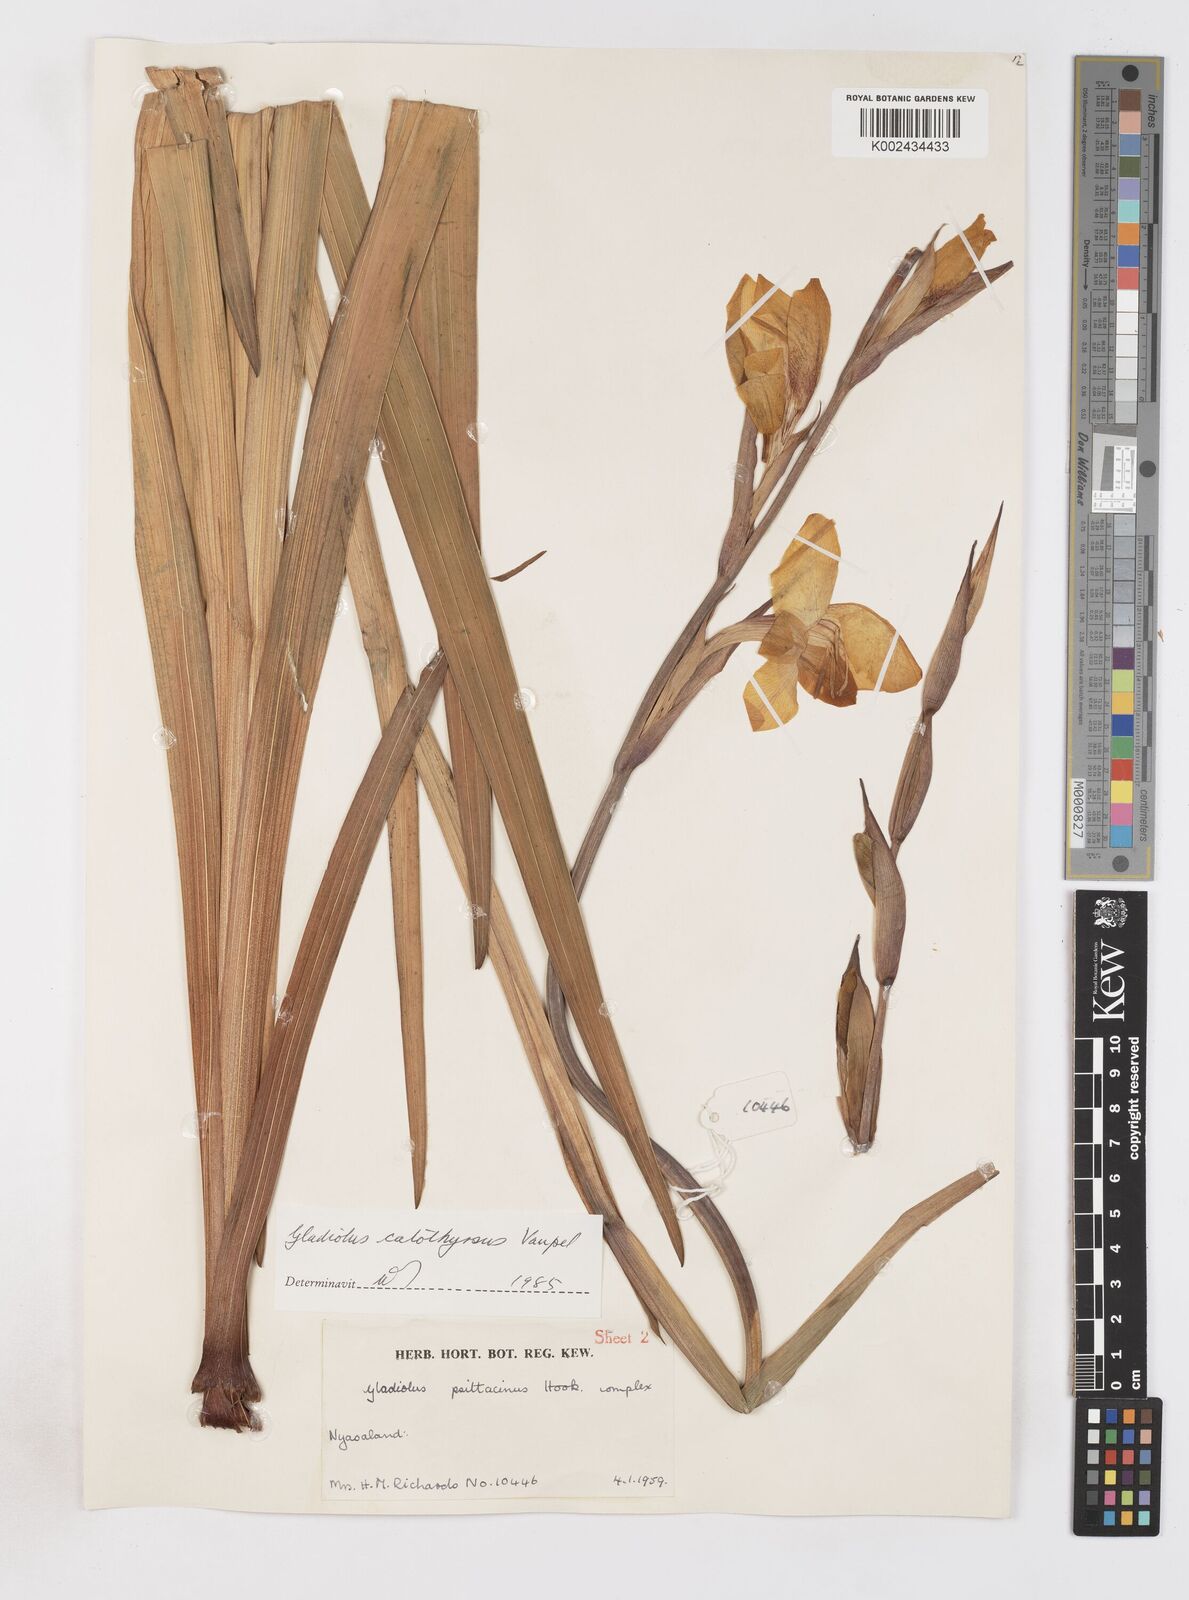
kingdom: Plantae
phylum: Tracheophyta
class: Liliopsida
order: Asparagales
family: Iridaceae
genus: Gladiolus
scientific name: Gladiolus dalenii
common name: Cornflag
